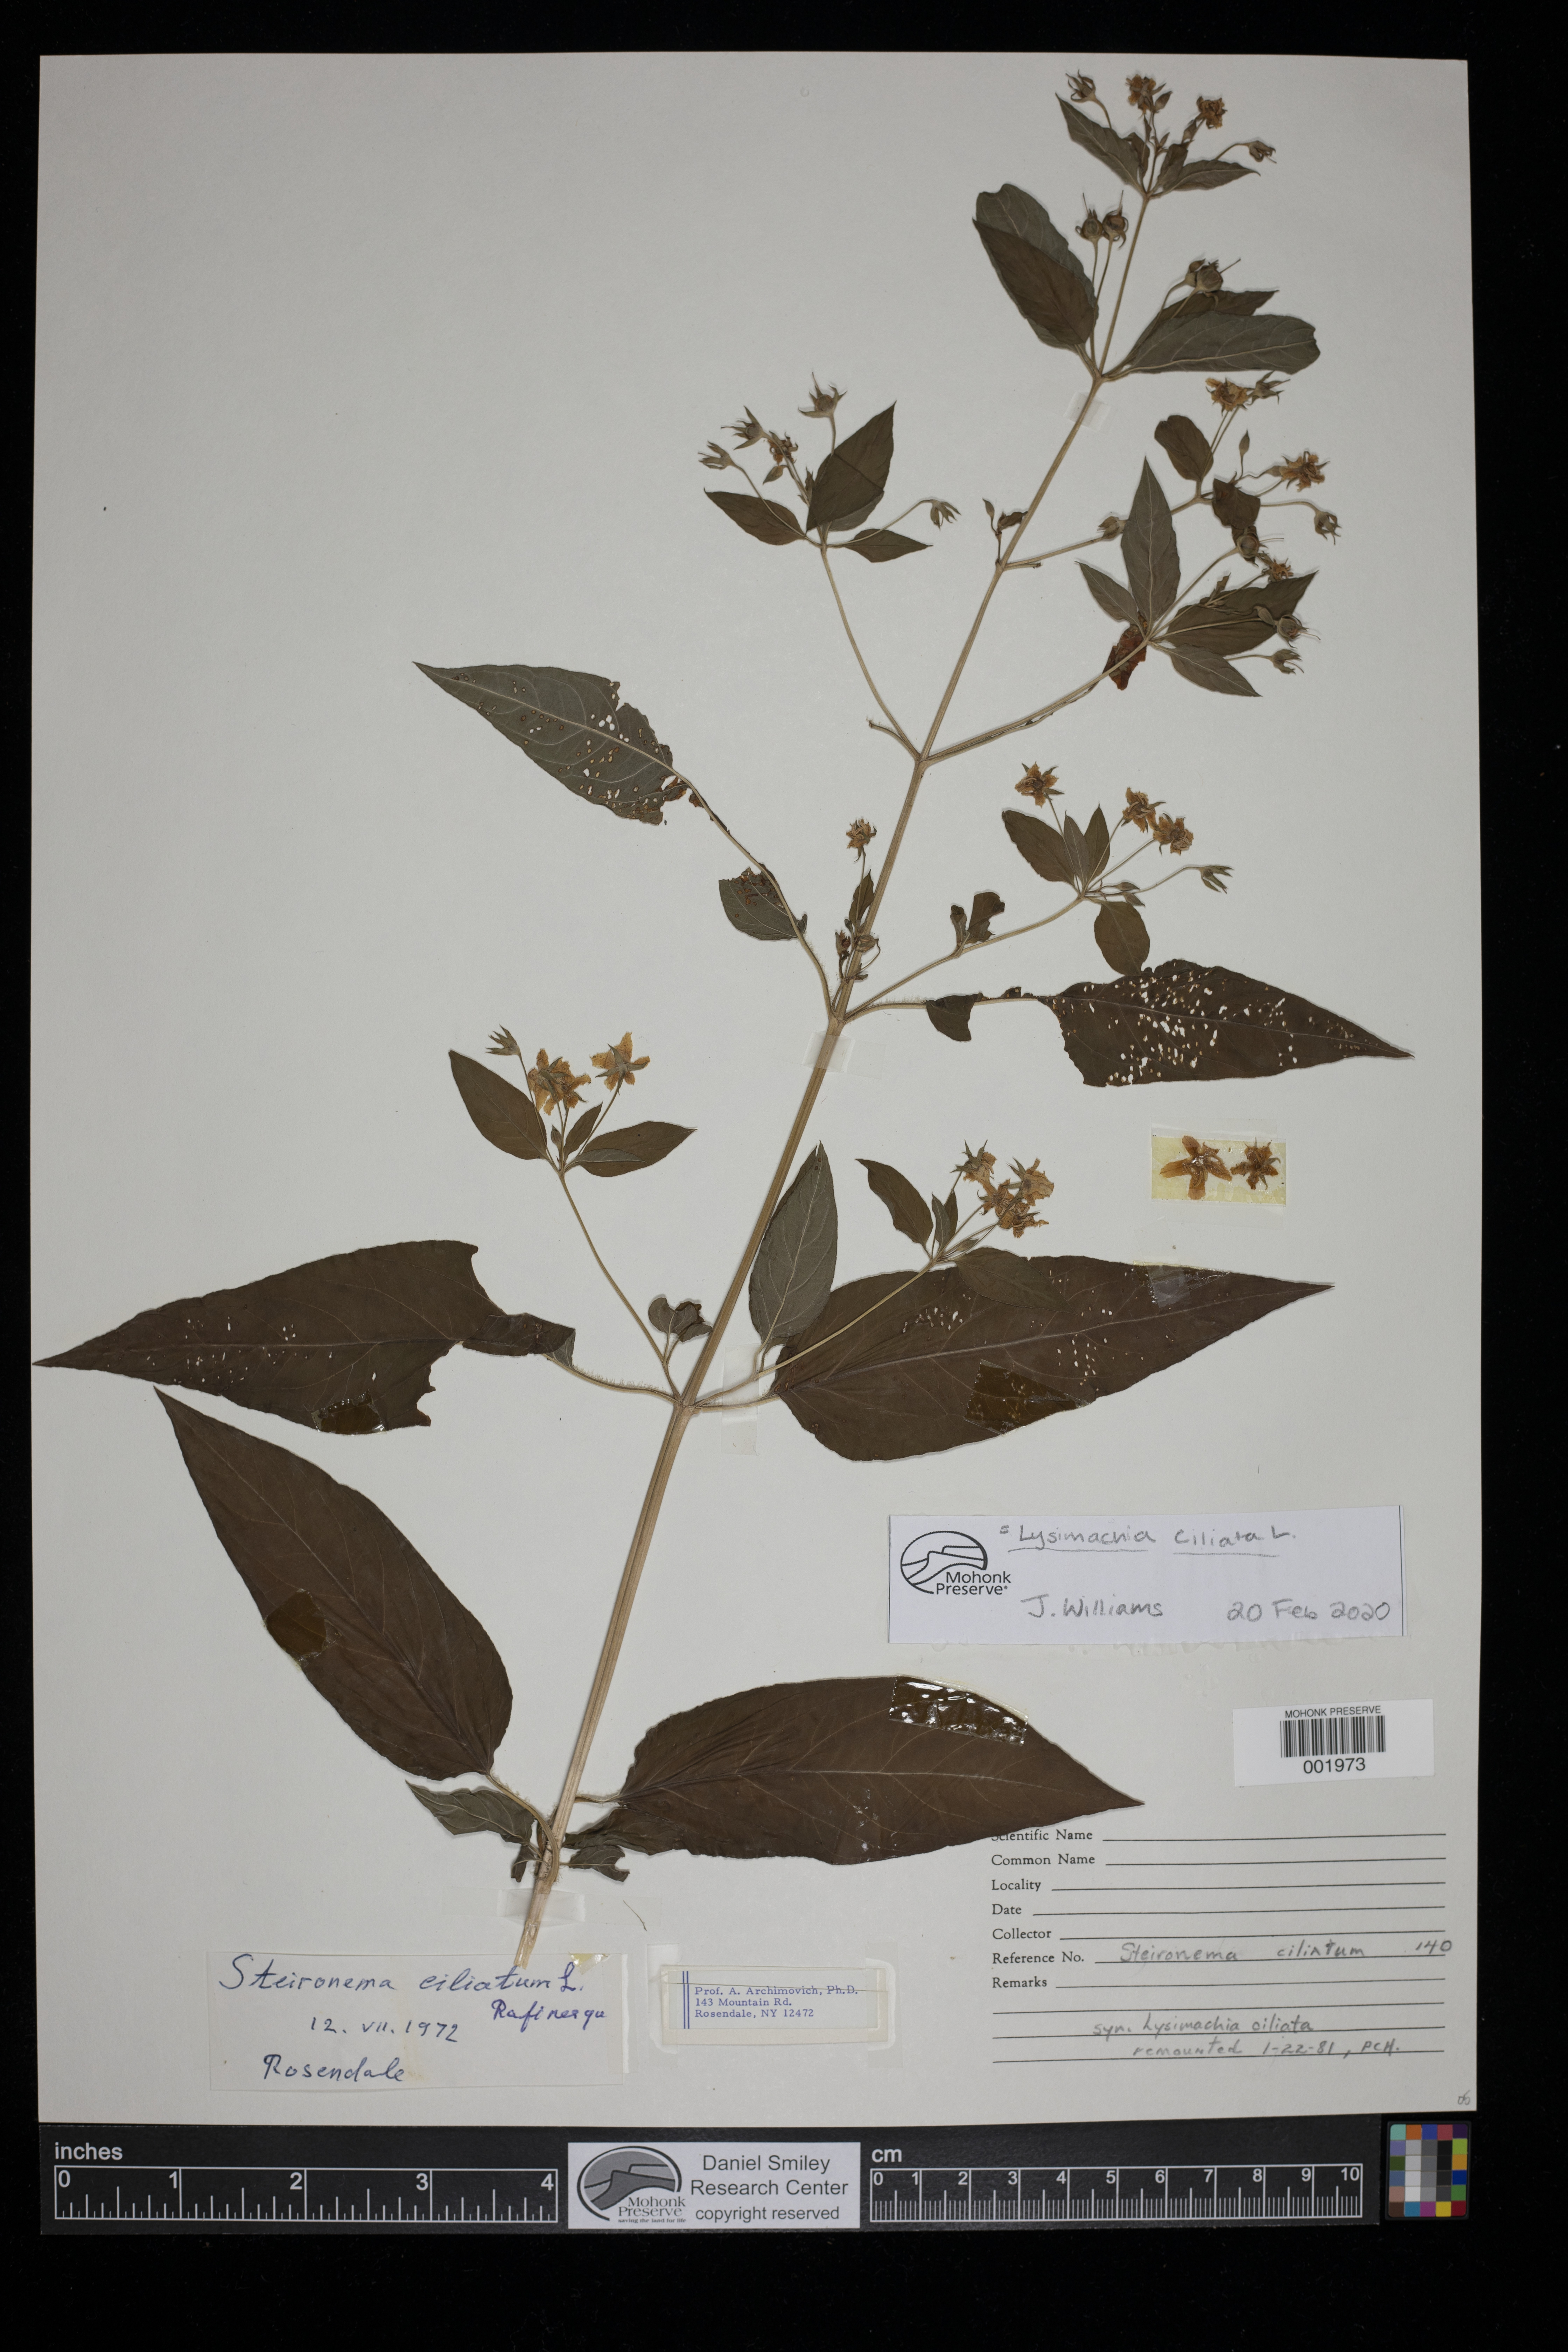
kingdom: Plantae
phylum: Tracheophyta
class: Magnoliopsida
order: Ericales
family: Primulaceae
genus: Lysimachia
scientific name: Lysimachia ciliata
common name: Fringed loosestrife
